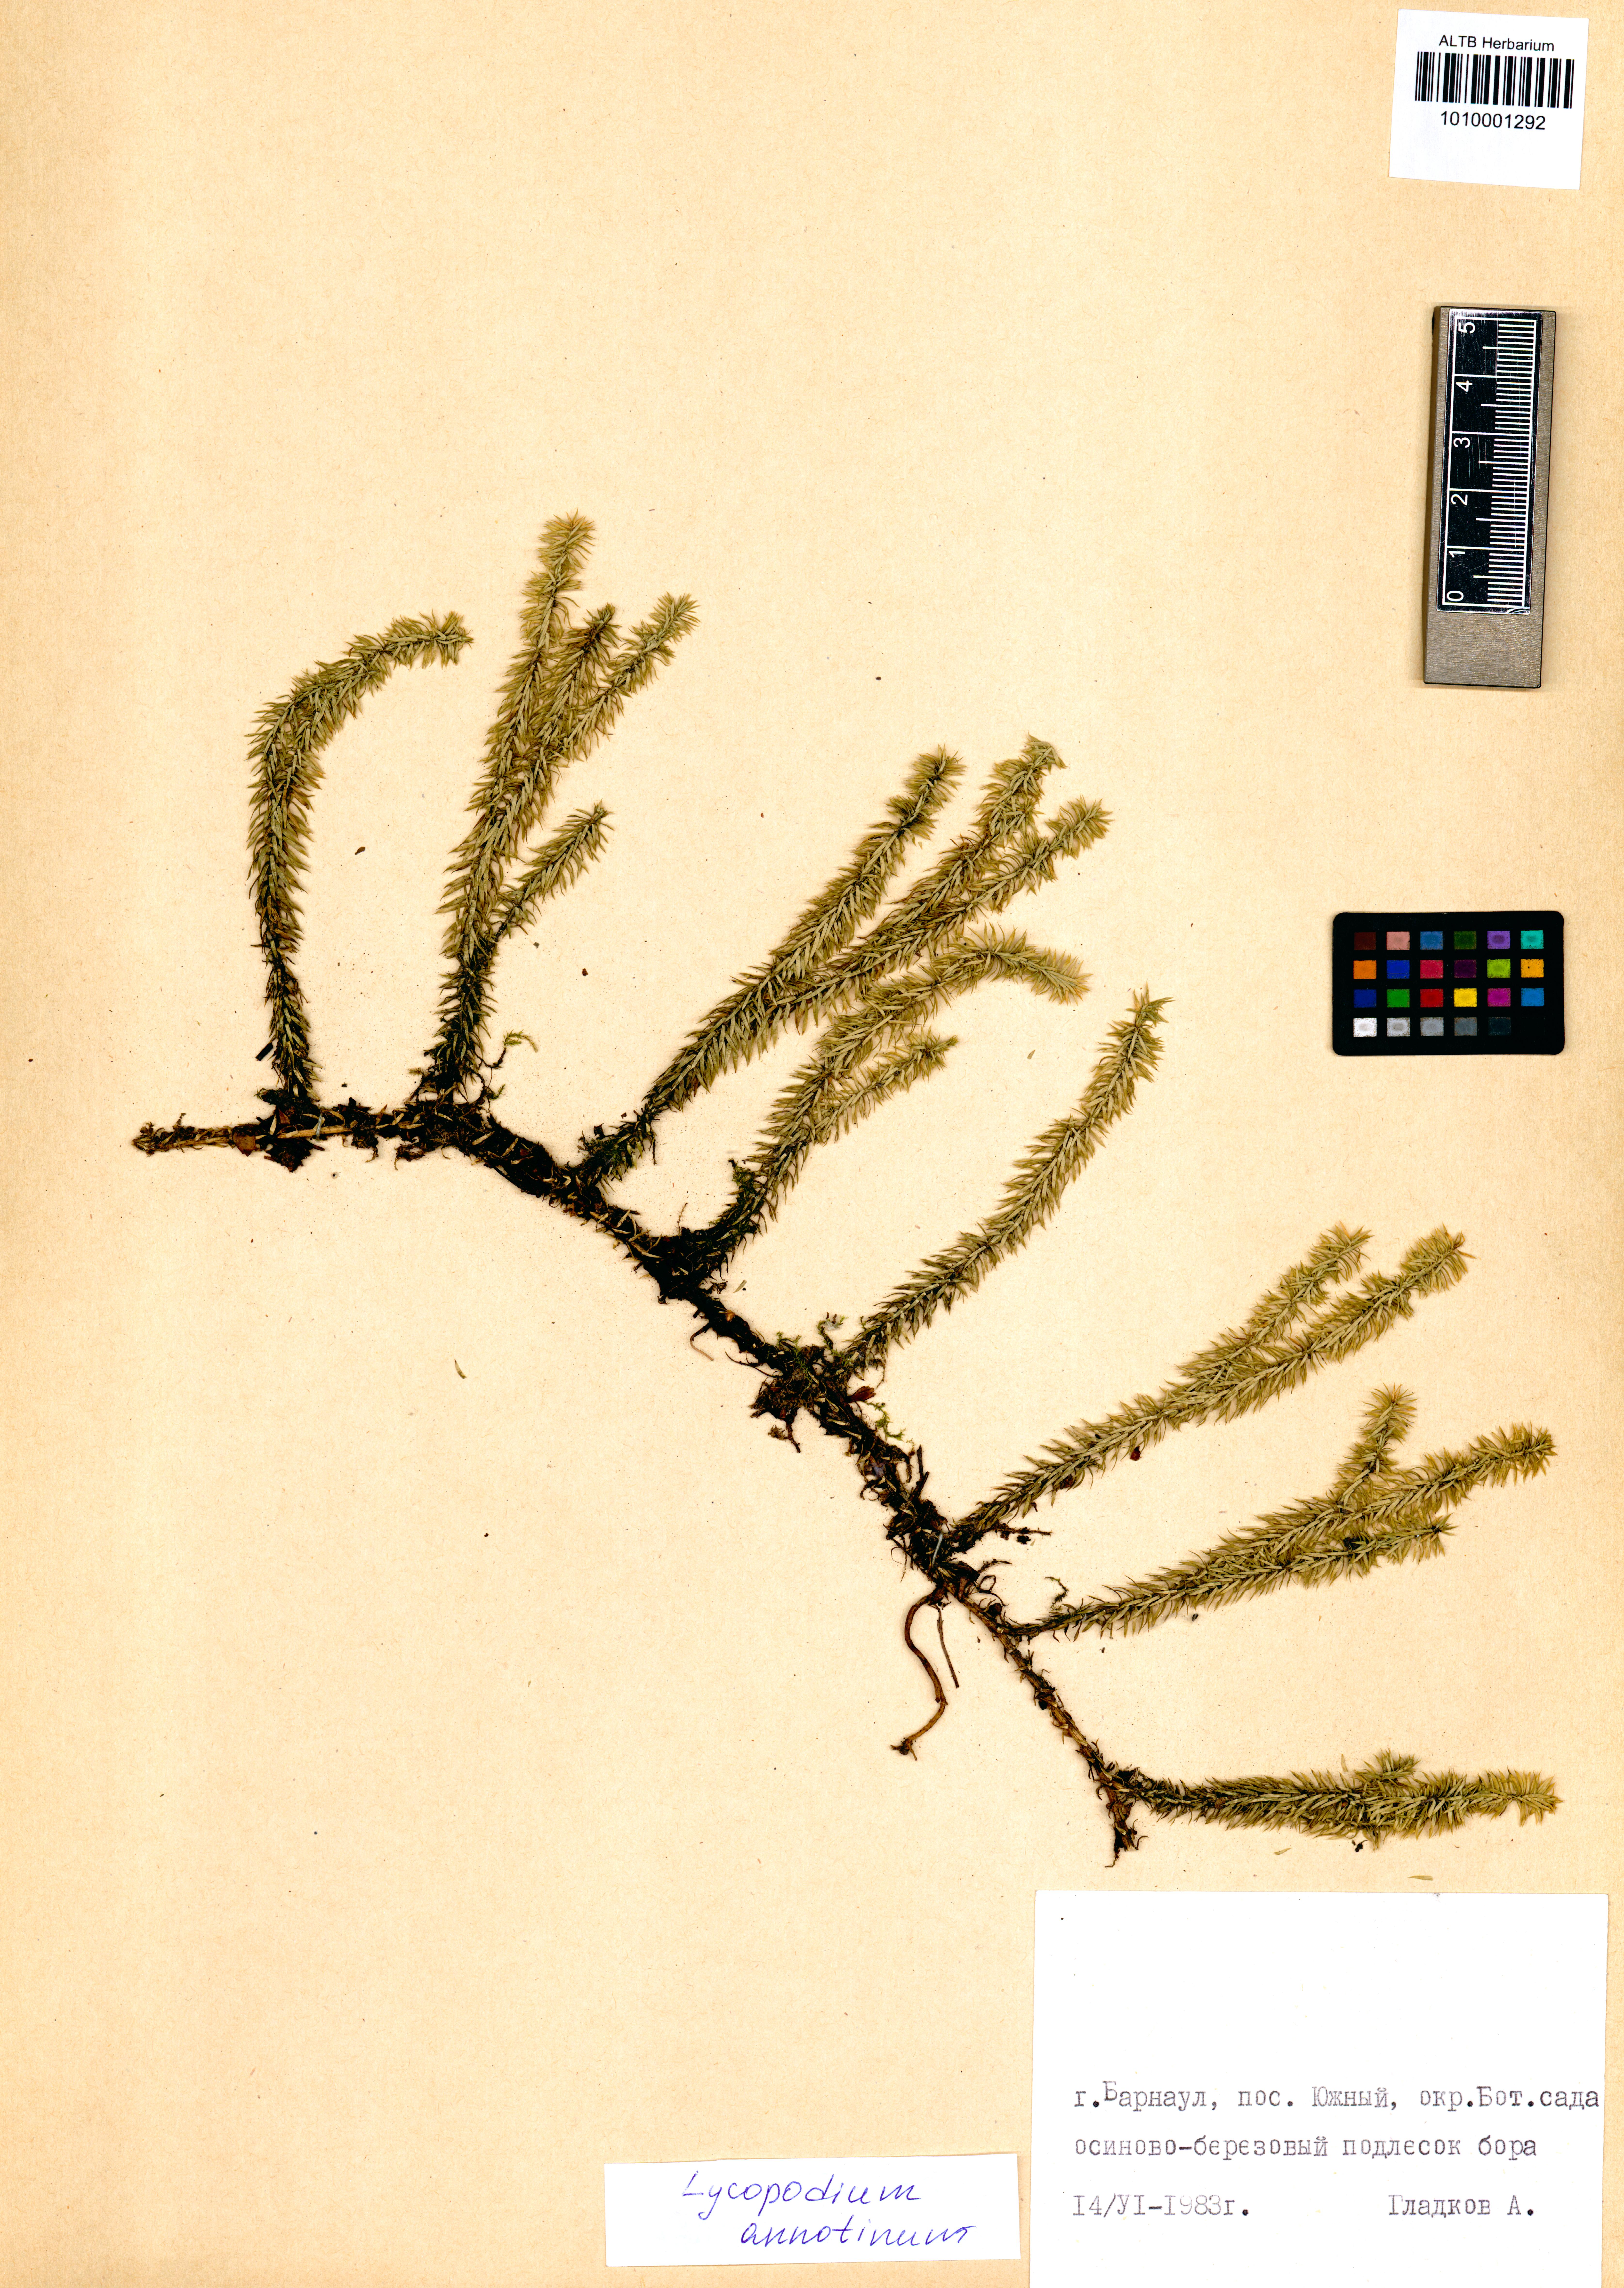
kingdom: Plantae
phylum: Tracheophyta
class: Lycopodiopsida
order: Lycopodiales
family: Lycopodiaceae
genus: Spinulum
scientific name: Spinulum annotinum
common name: Interrupted club-moss
